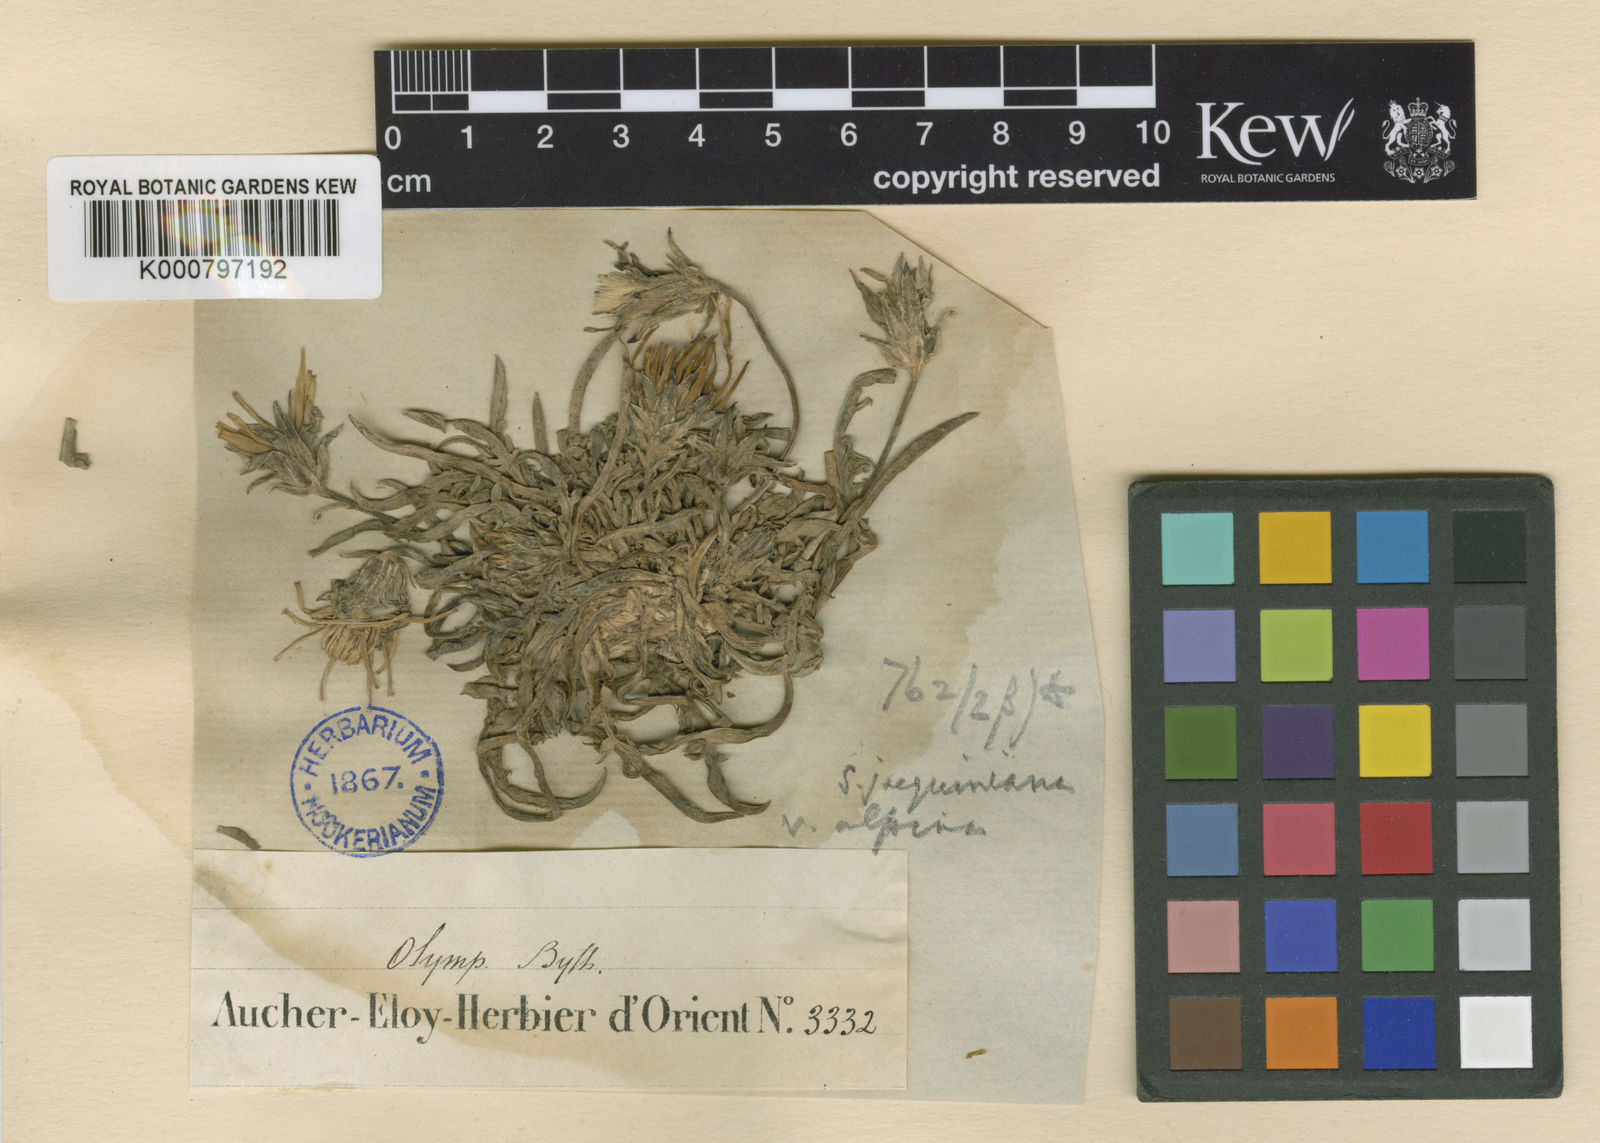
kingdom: Plantae
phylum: Tracheophyta
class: Magnoliopsida
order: Asterales
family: Asteraceae
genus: Scorzonera
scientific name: Scorzonera cana
